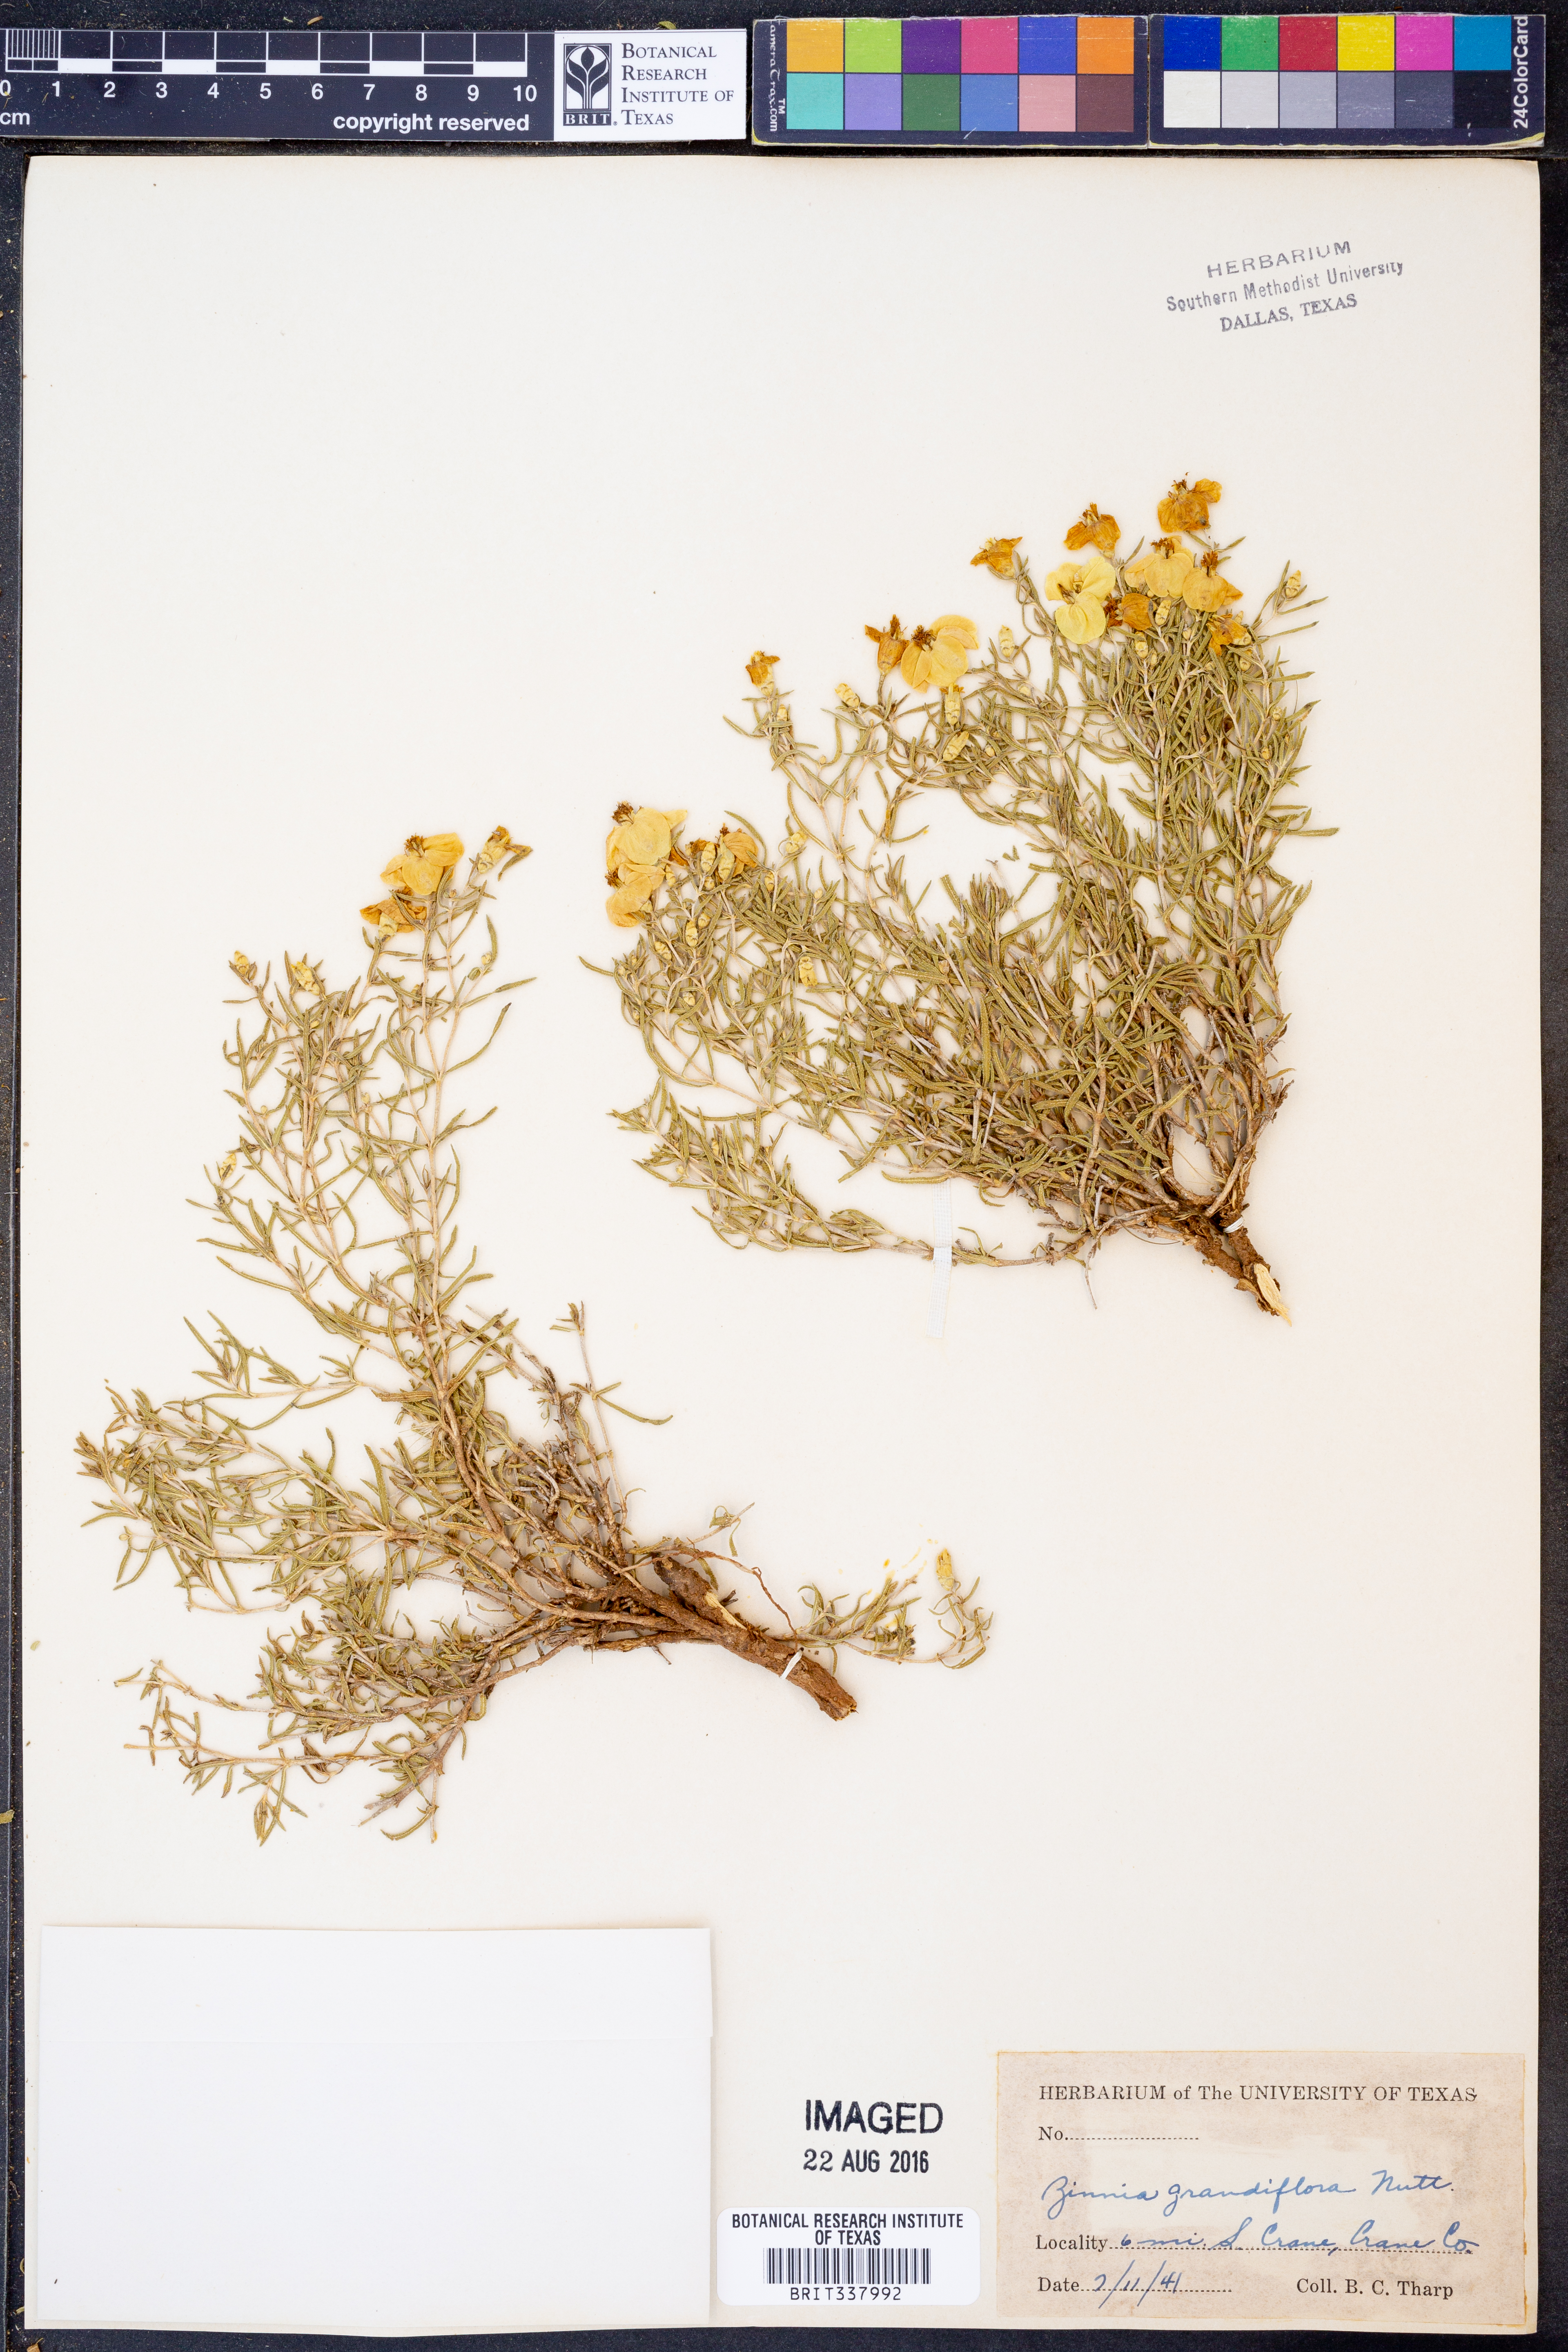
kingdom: Plantae
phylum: Tracheophyta
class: Magnoliopsida
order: Asterales
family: Asteraceae
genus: Zinnia
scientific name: Zinnia grandiflora
